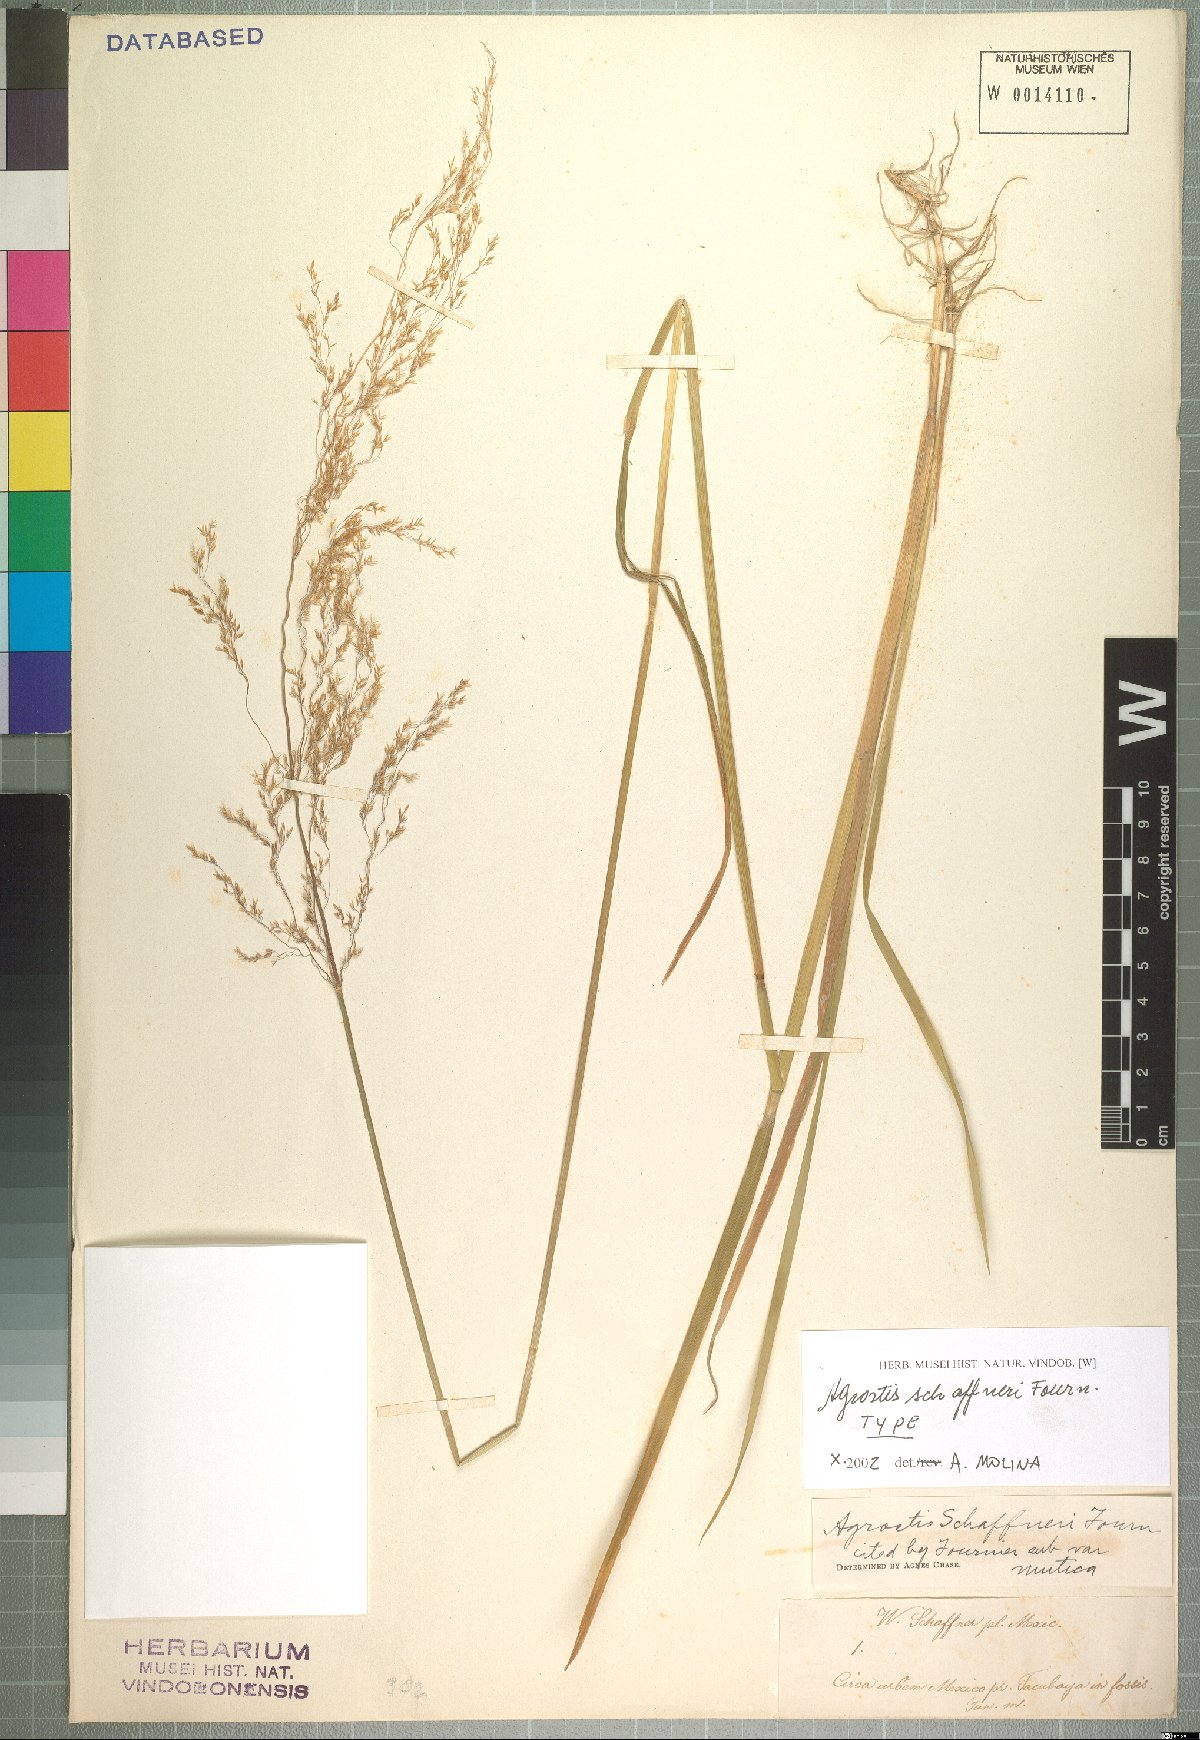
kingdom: Plantae
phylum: Tracheophyta
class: Liliopsida
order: Poales
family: Poaceae
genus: Agrostis
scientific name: Agrostis schaffneri
